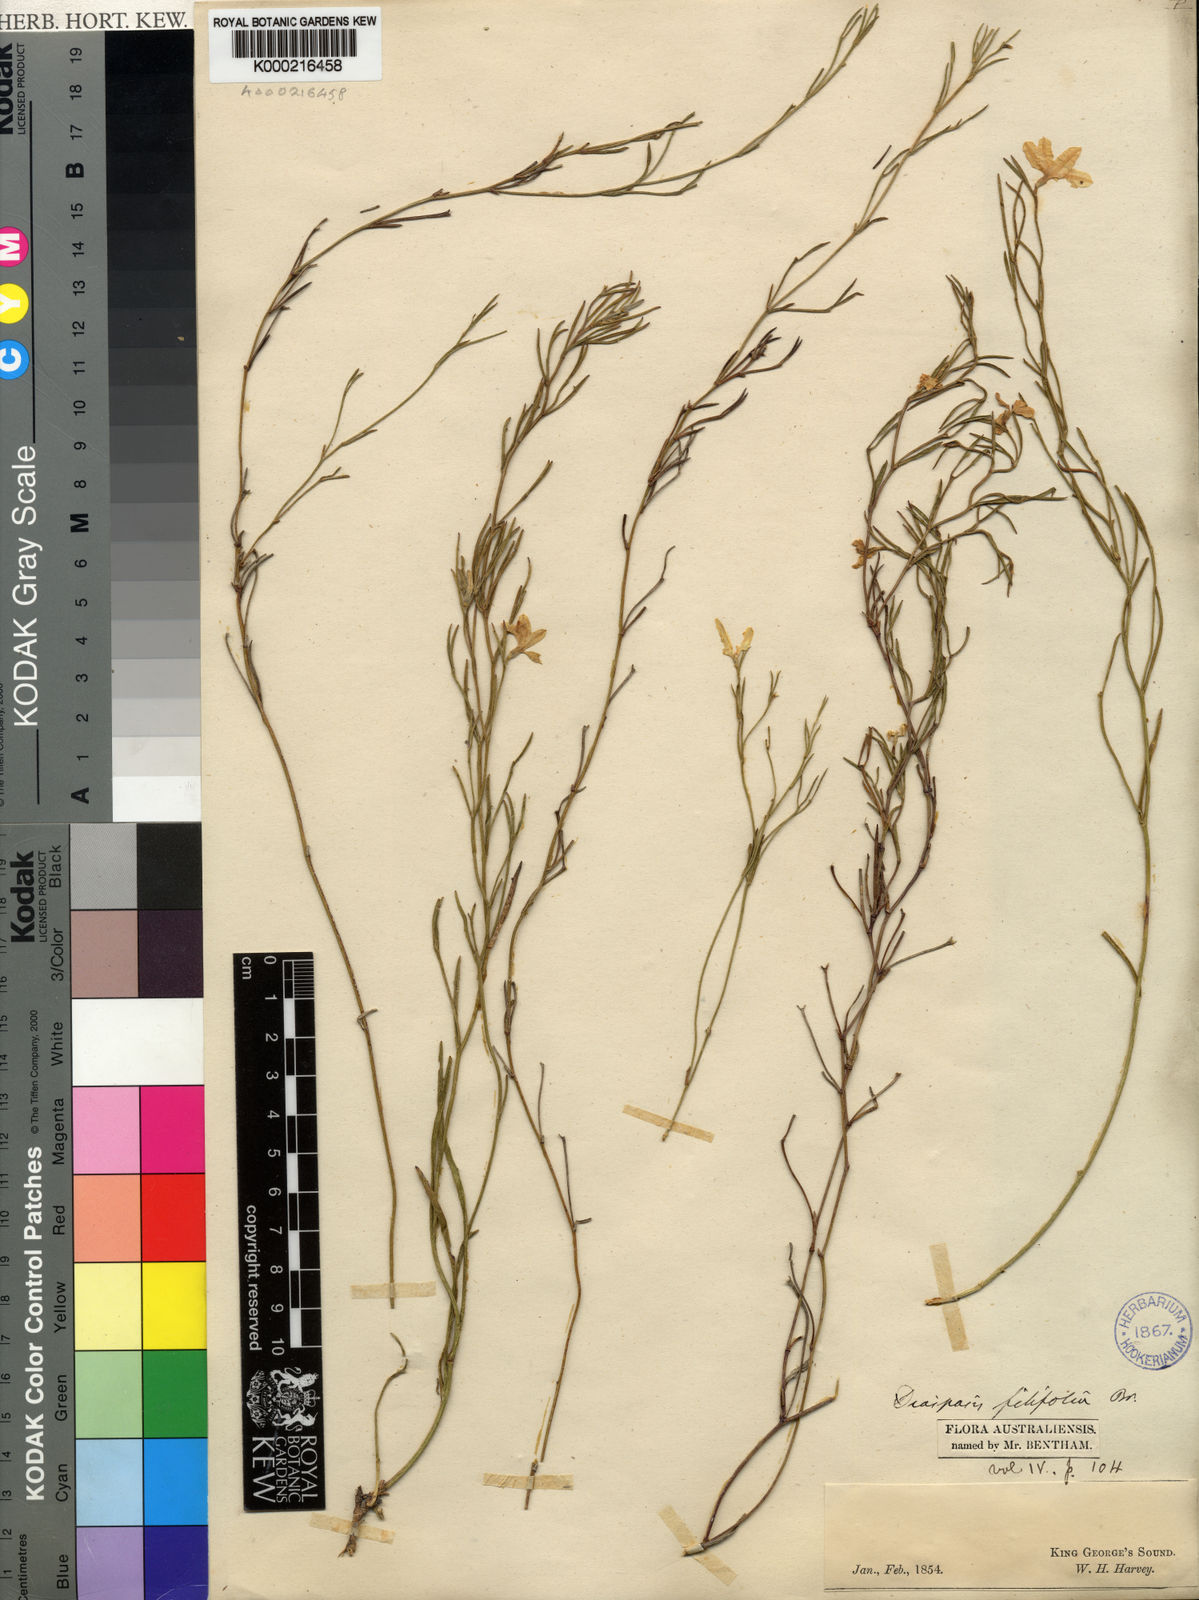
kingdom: Plantae
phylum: Tracheophyta
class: Magnoliopsida
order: Asterales
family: Goodeniaceae
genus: Scaevola
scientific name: Scaevola filifolia
